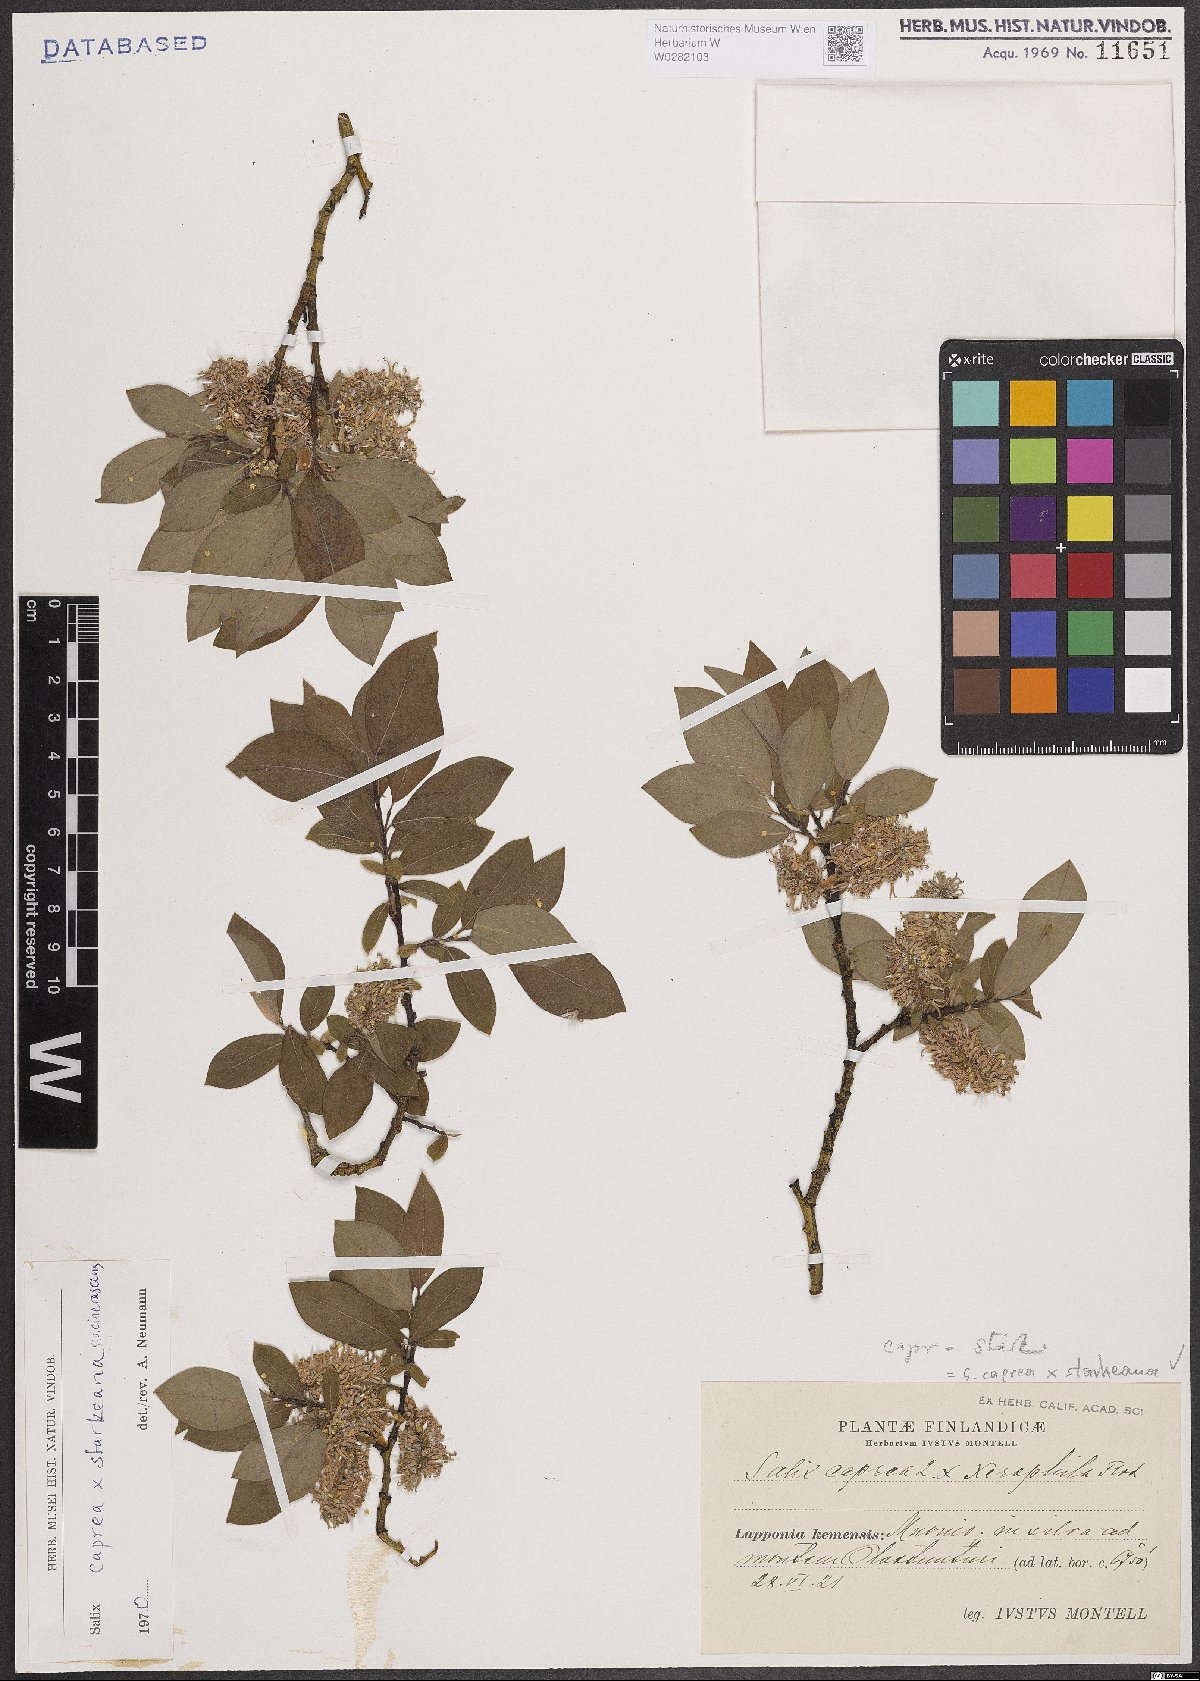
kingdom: Plantae
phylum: Tracheophyta
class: Magnoliopsida
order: Malpighiales
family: Salicaceae
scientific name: Salicaceae
